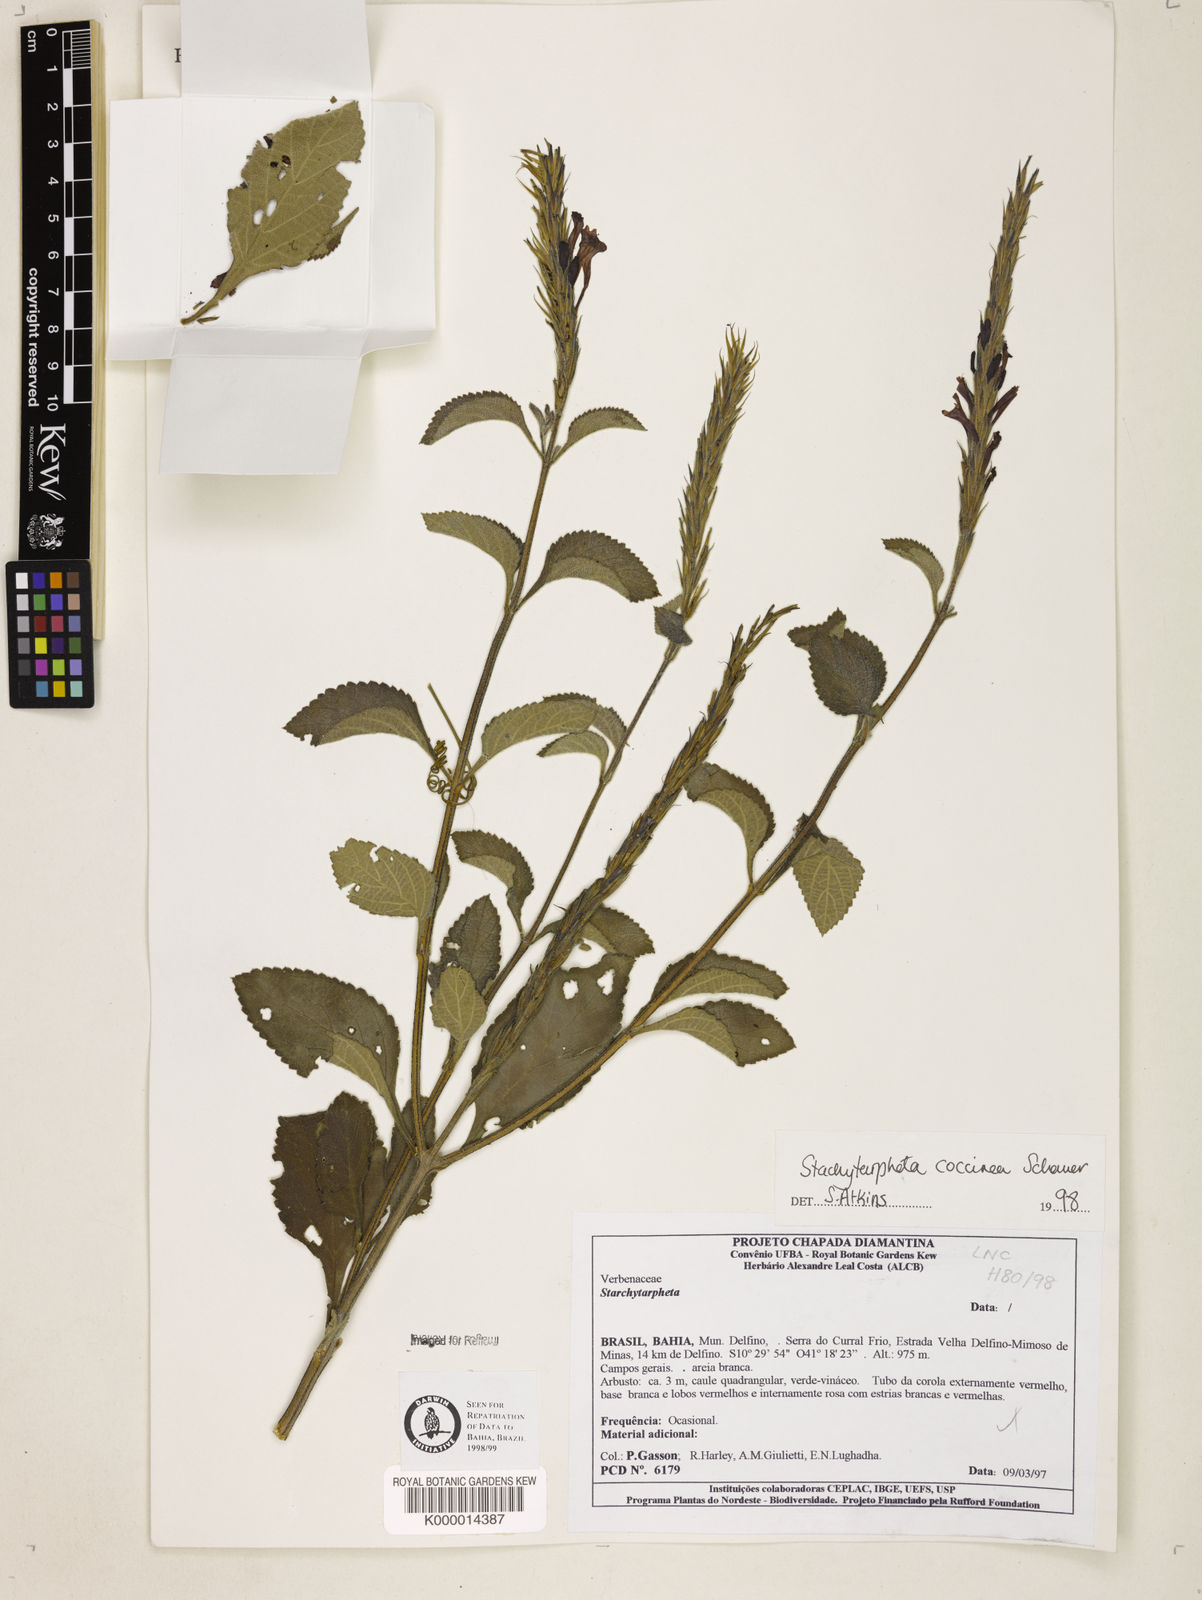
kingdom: Plantae
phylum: Tracheophyta
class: Magnoliopsida
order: Lamiales
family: Verbenaceae
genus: Stachytarpheta
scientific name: Stachytarpheta coccinea
